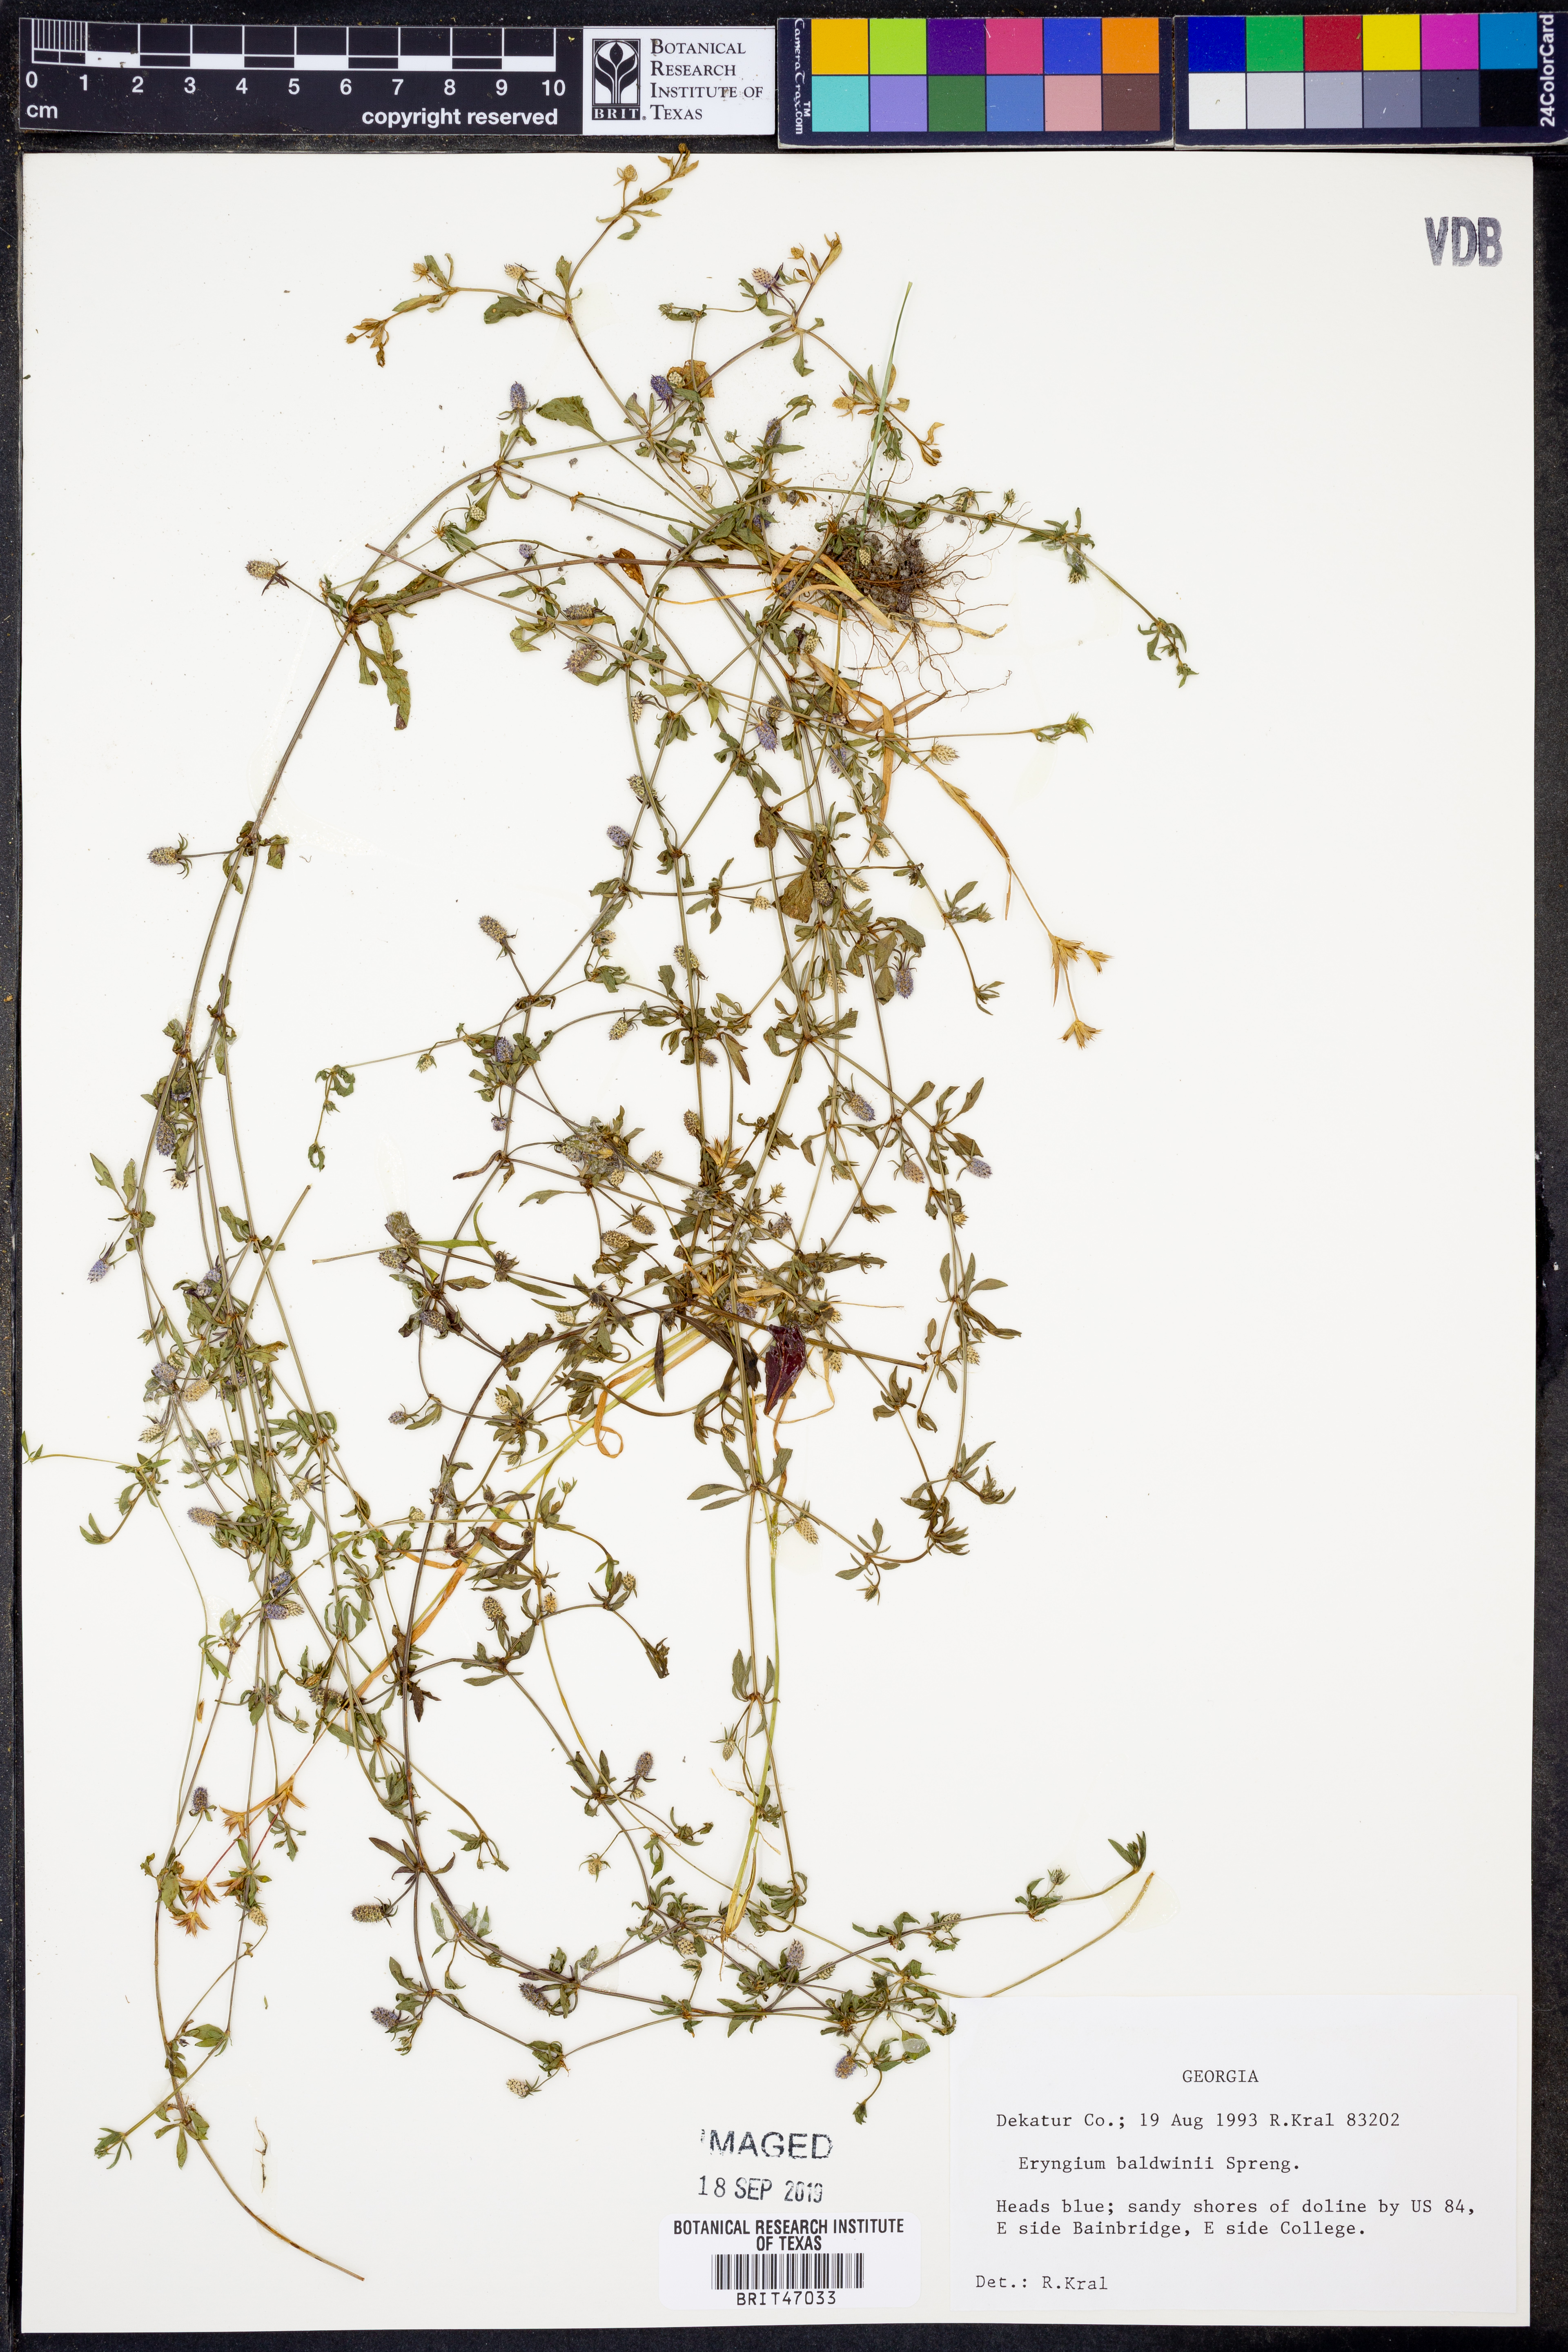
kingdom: Plantae
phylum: Tracheophyta
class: Magnoliopsida
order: Apiales
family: Apiaceae
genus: Eryngium
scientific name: Eryngium baldwinii
